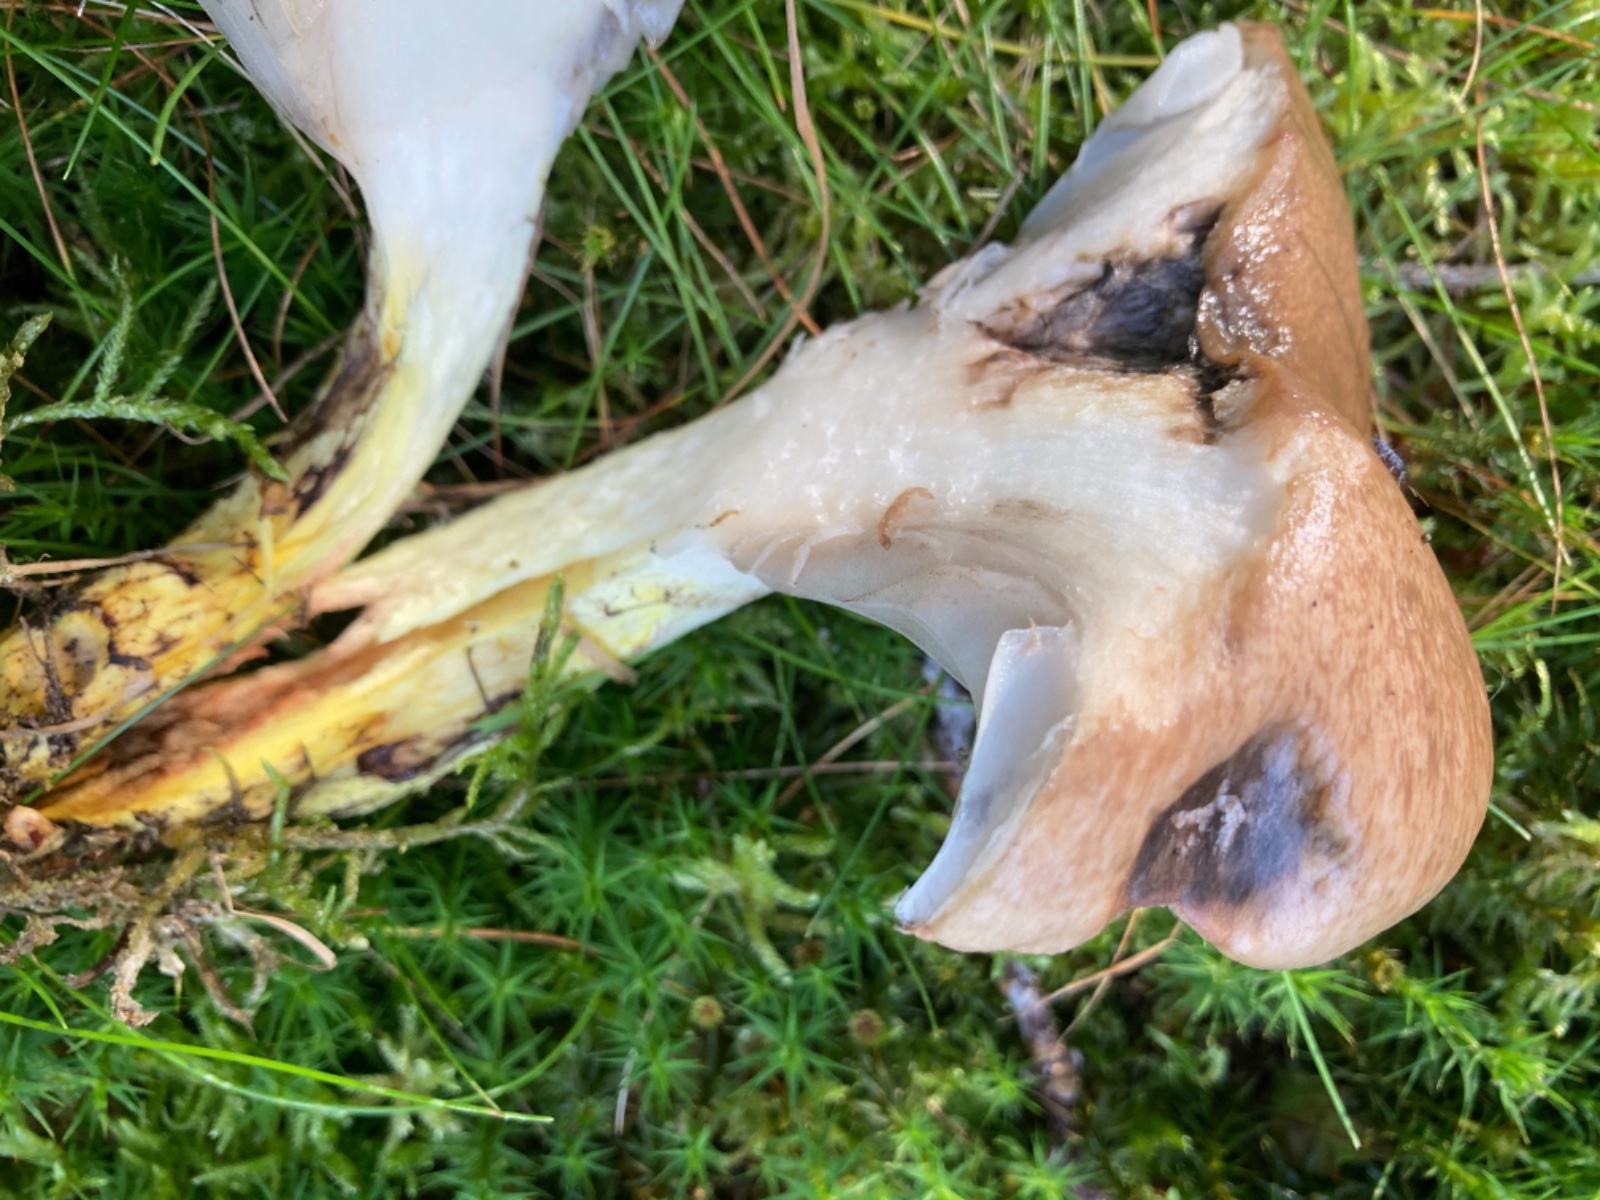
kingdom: Fungi
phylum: Basidiomycota
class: Agaricomycetes
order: Boletales
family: Gomphidiaceae
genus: Gomphidius
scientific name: Gomphidius glutinosus
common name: grå slimslør
